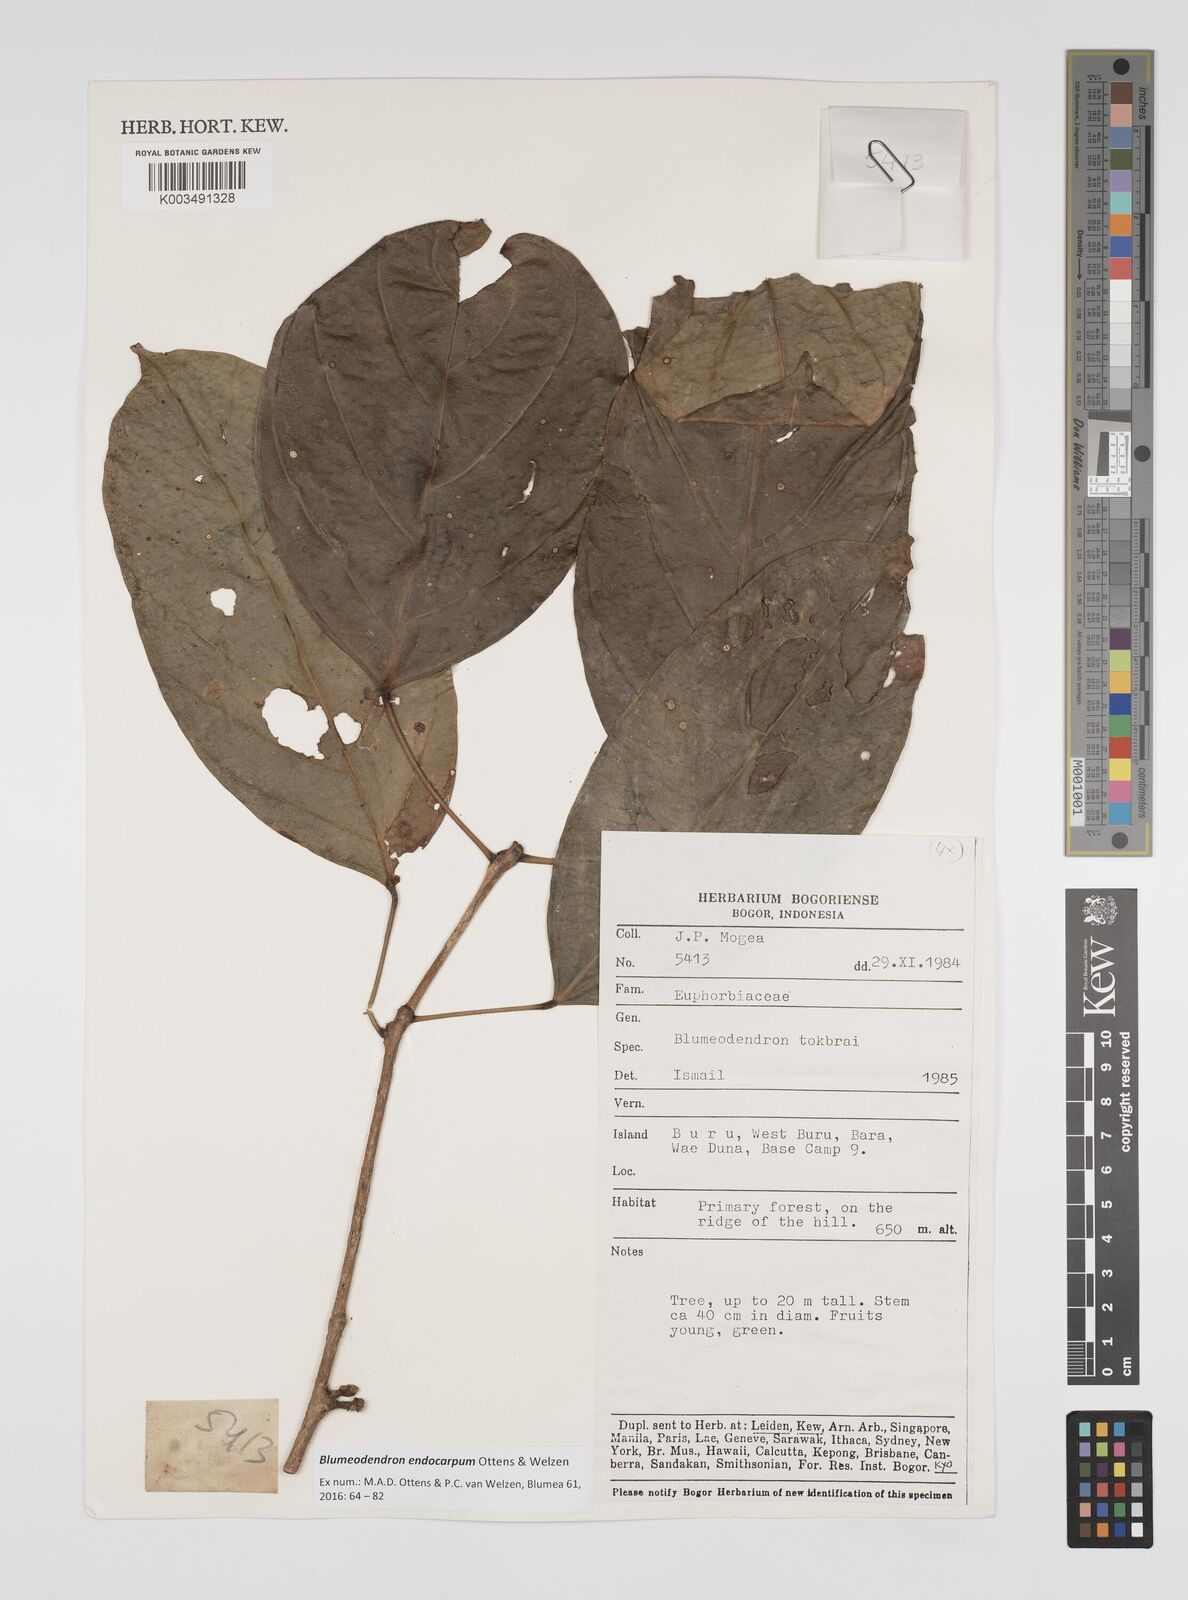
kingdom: Plantae
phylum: Tracheophyta
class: Magnoliopsida
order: Malpighiales
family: Euphorbiaceae
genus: Blumeodendron
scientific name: Blumeodendron endocarpum
